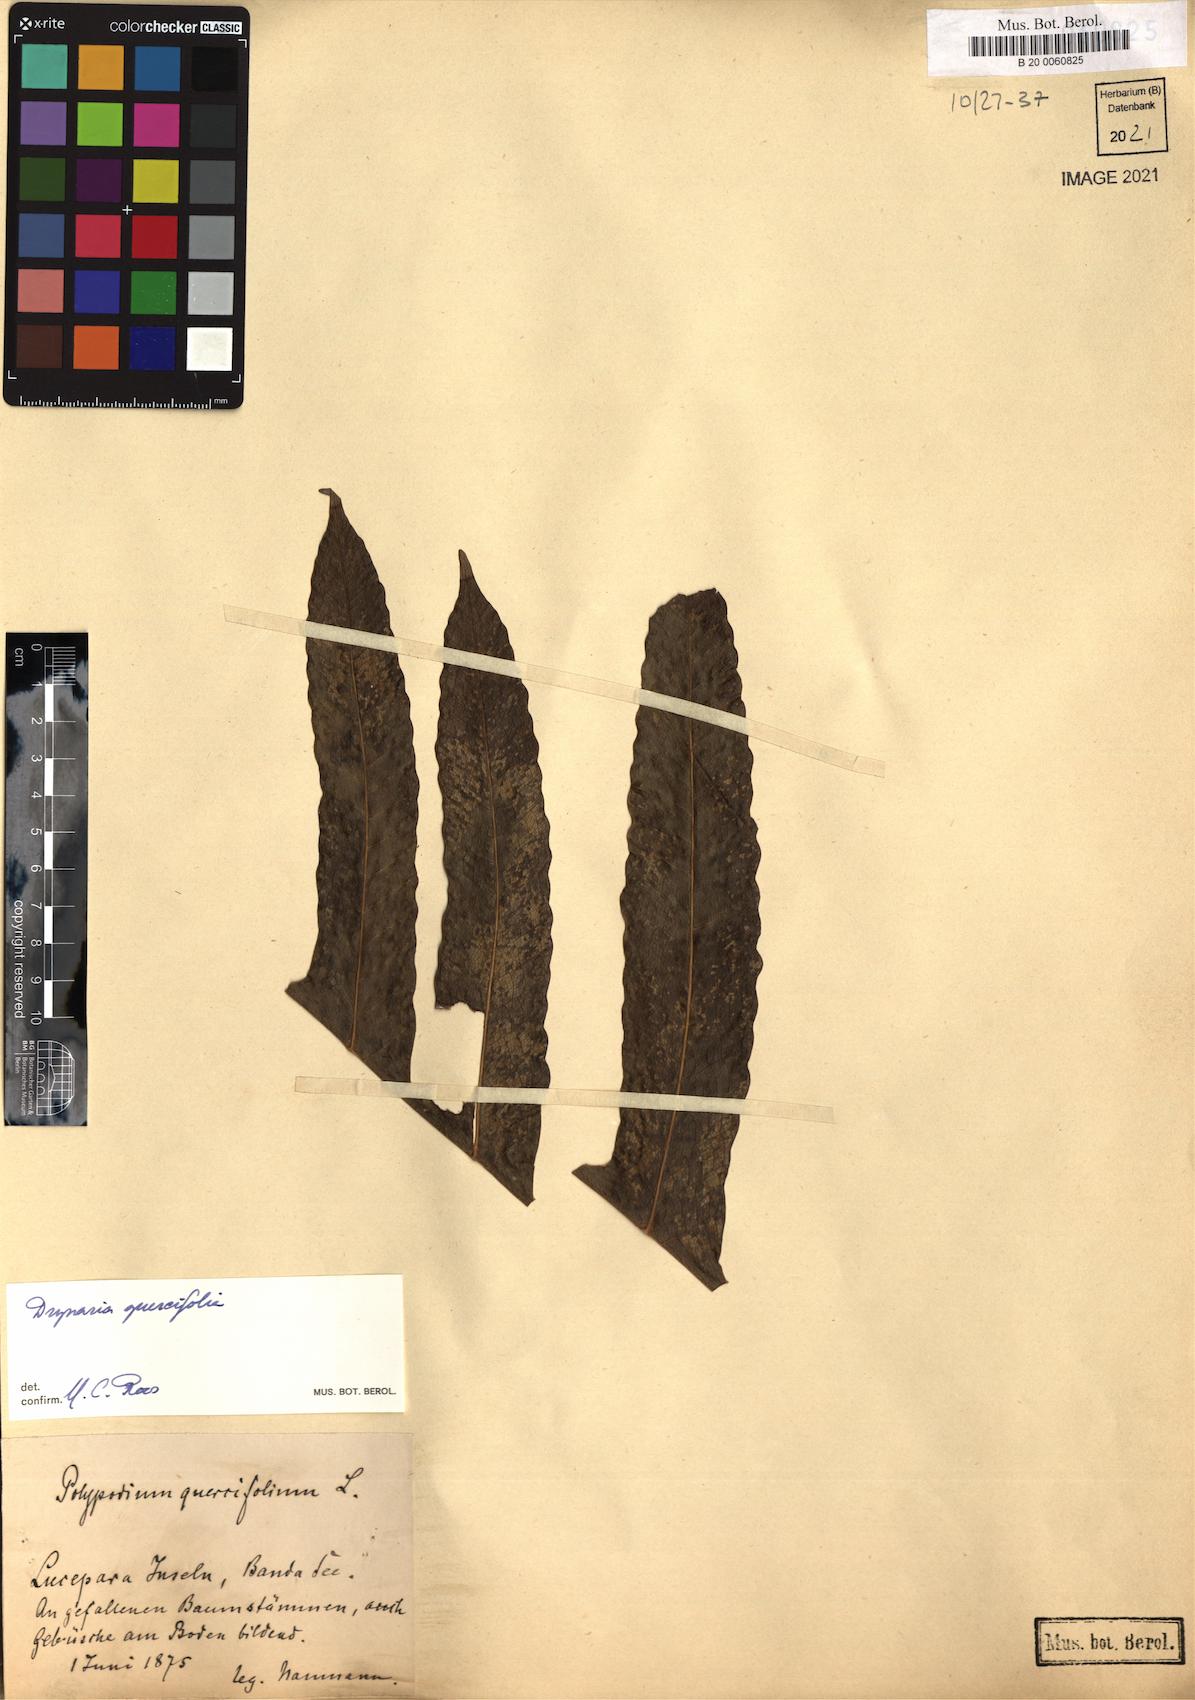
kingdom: Plantae
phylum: Tracheophyta
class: Polypodiopsida
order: Polypodiales
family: Polypodiaceae
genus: Drynaria
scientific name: Drynaria quercifolia
